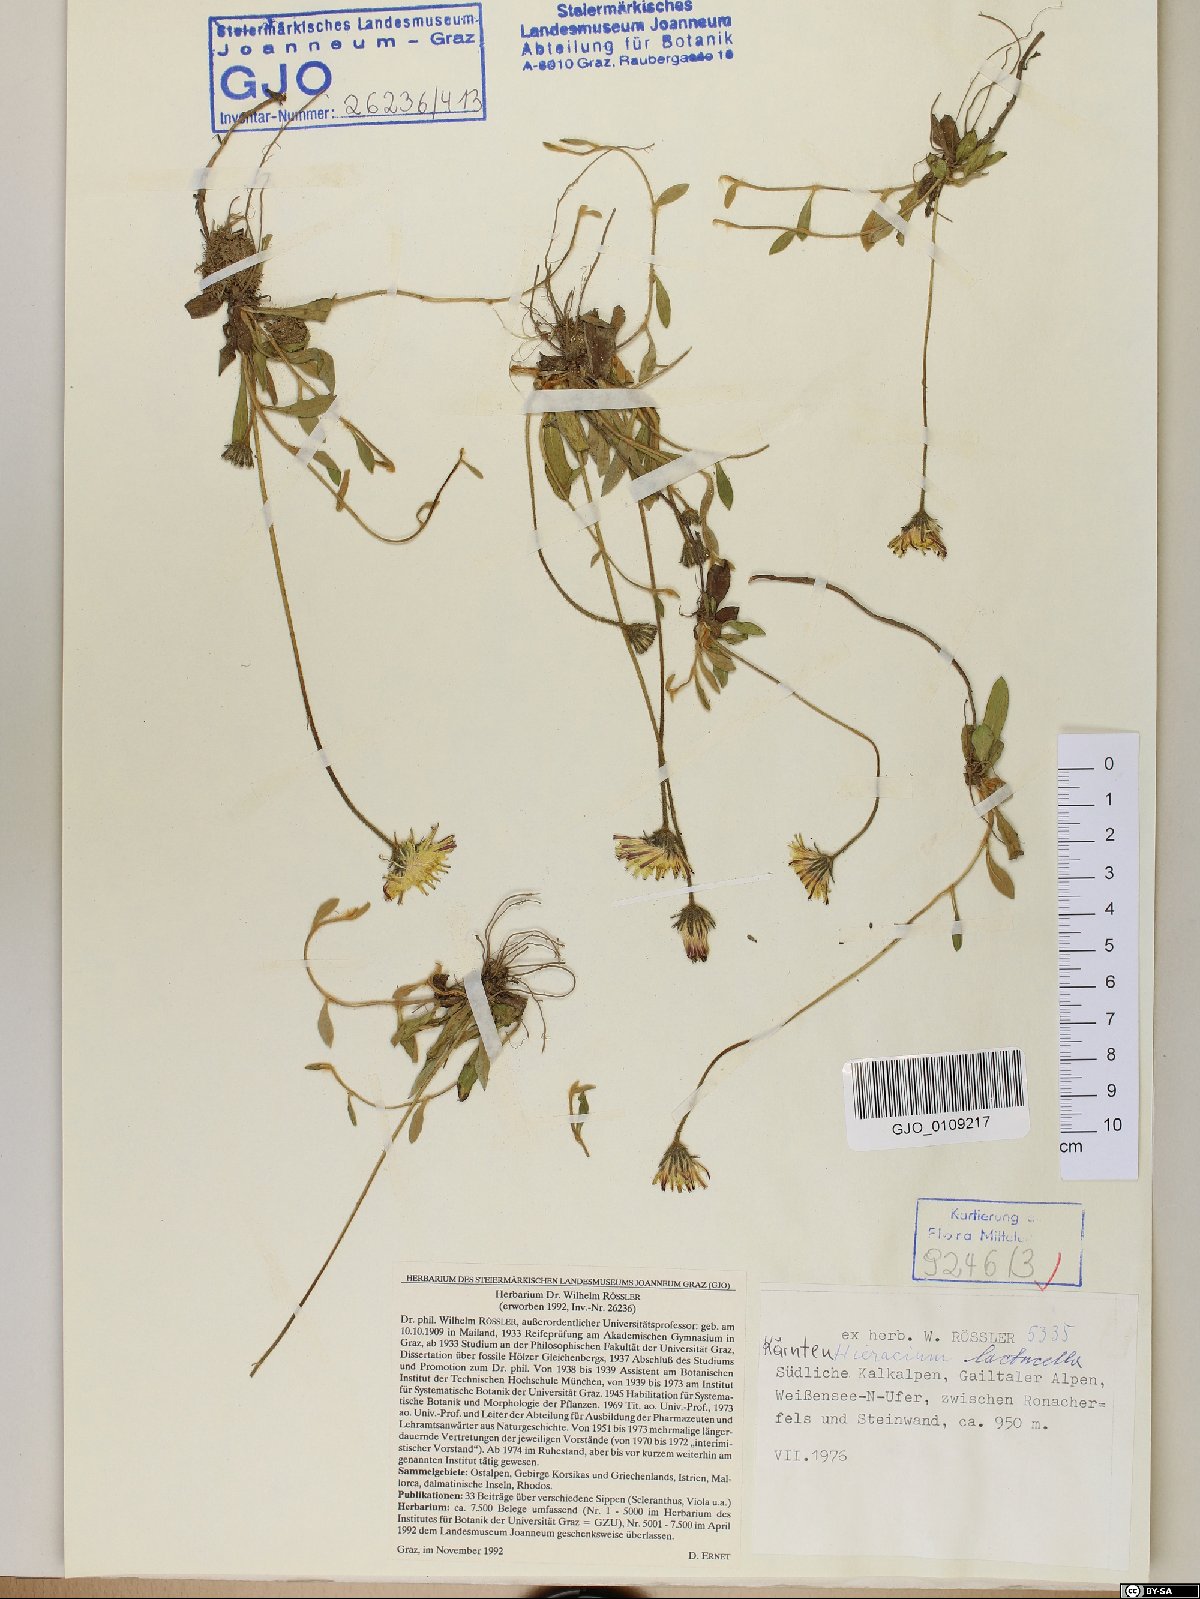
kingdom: Plantae
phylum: Tracheophyta
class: Magnoliopsida
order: Asterales
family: Asteraceae
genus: Pilosella
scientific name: Pilosella lactucella
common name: Glaucous fox-and-cubs
